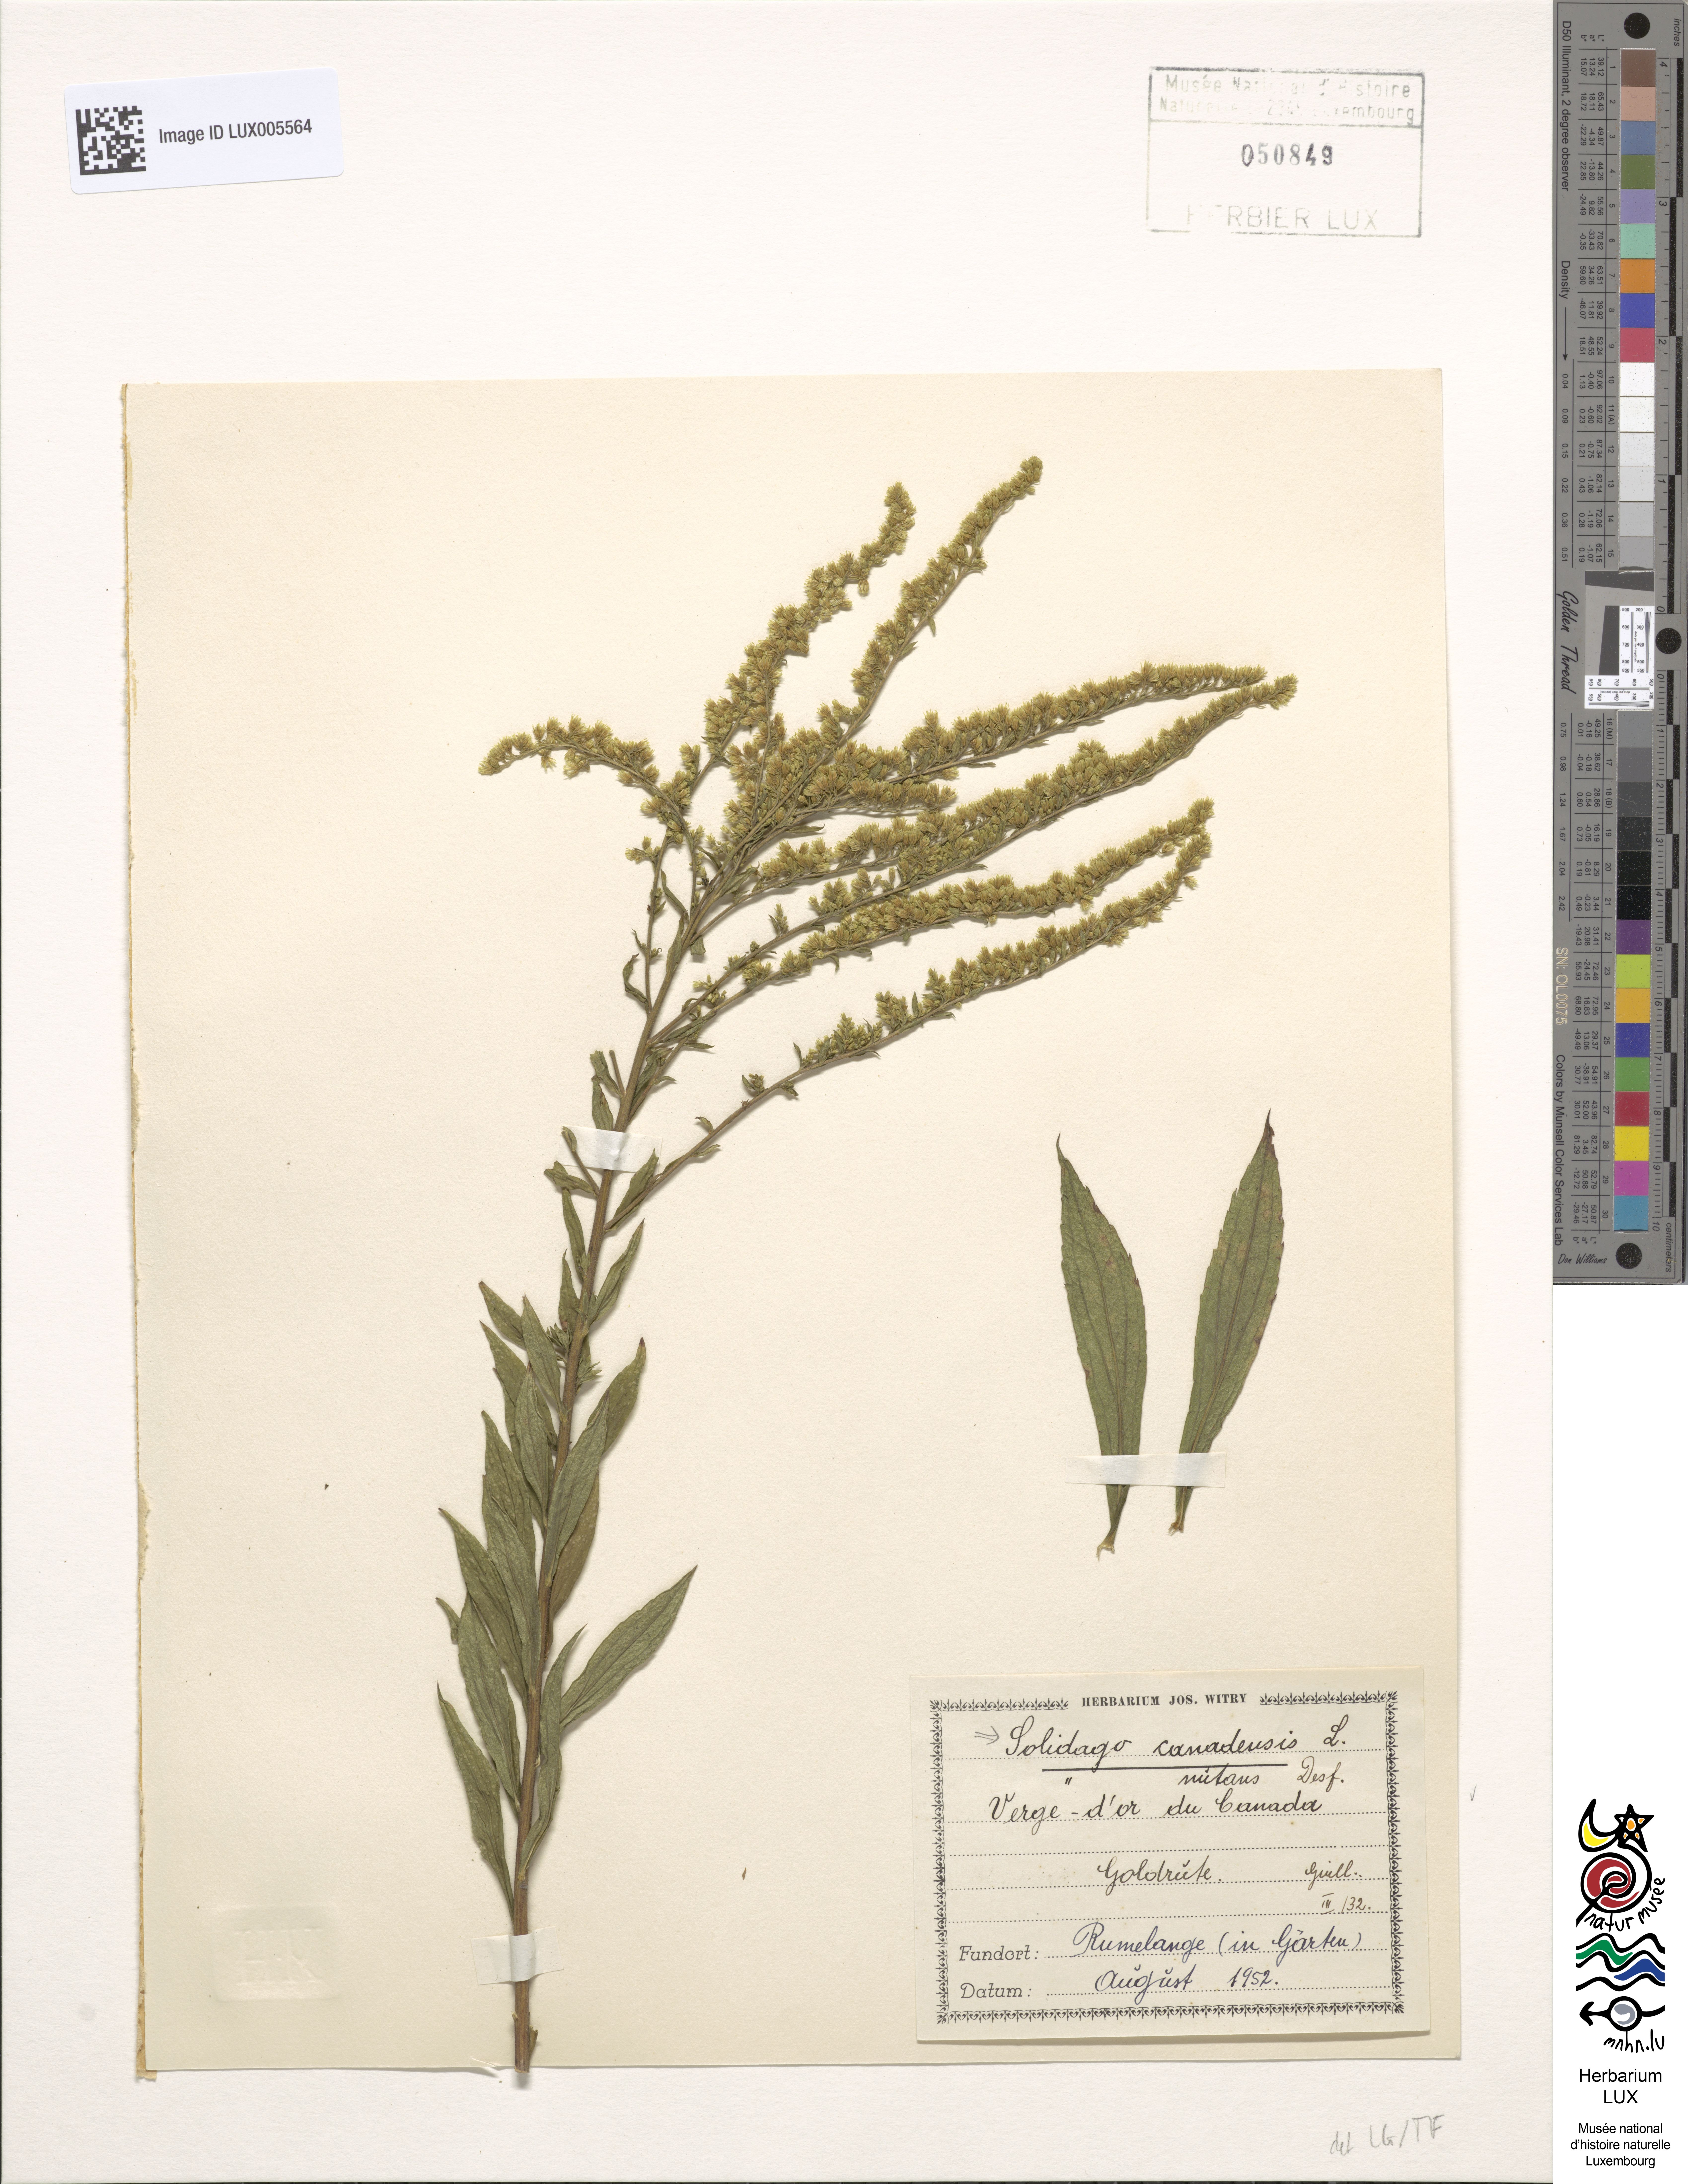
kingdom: Plantae
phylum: Tracheophyta
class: Magnoliopsida
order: Asterales
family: Asteraceae
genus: Solidago
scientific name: Solidago canadensis
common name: Canada goldenrod
